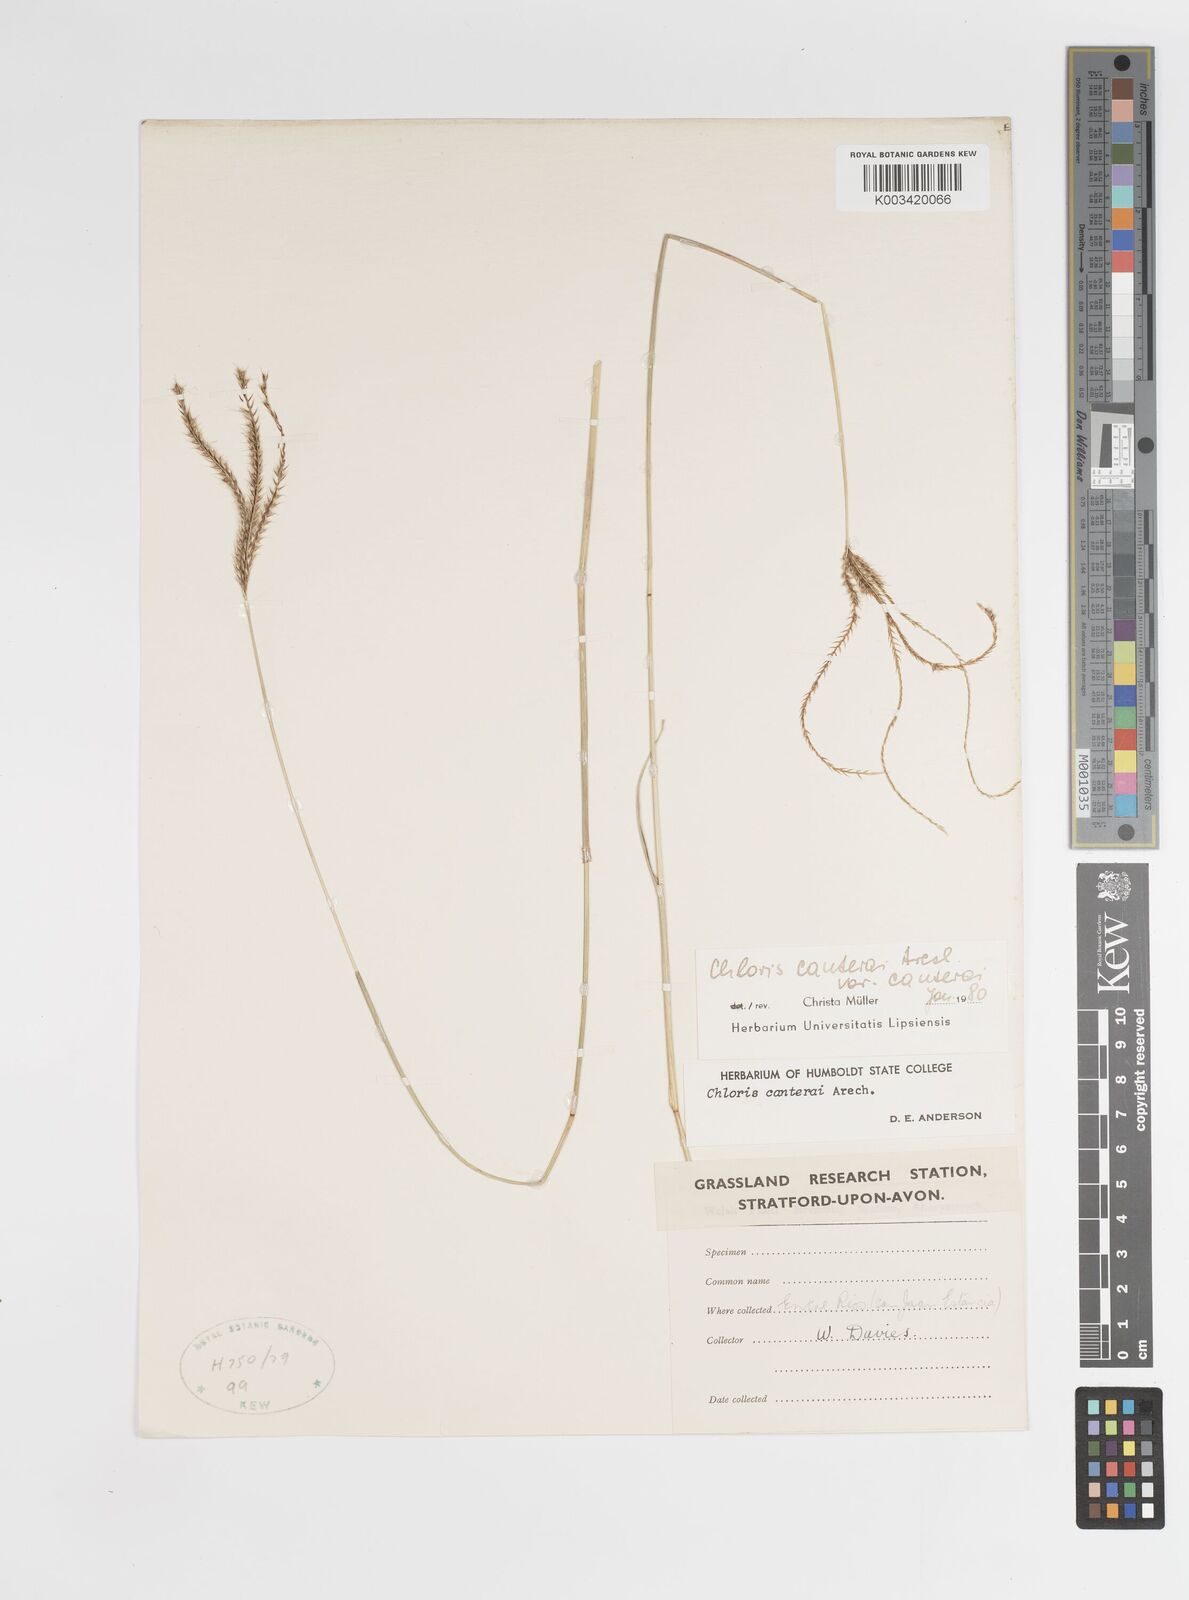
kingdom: Plantae
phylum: Tracheophyta
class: Liliopsida
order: Poales
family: Poaceae
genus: Stapfochloa
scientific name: Stapfochloa canterae
